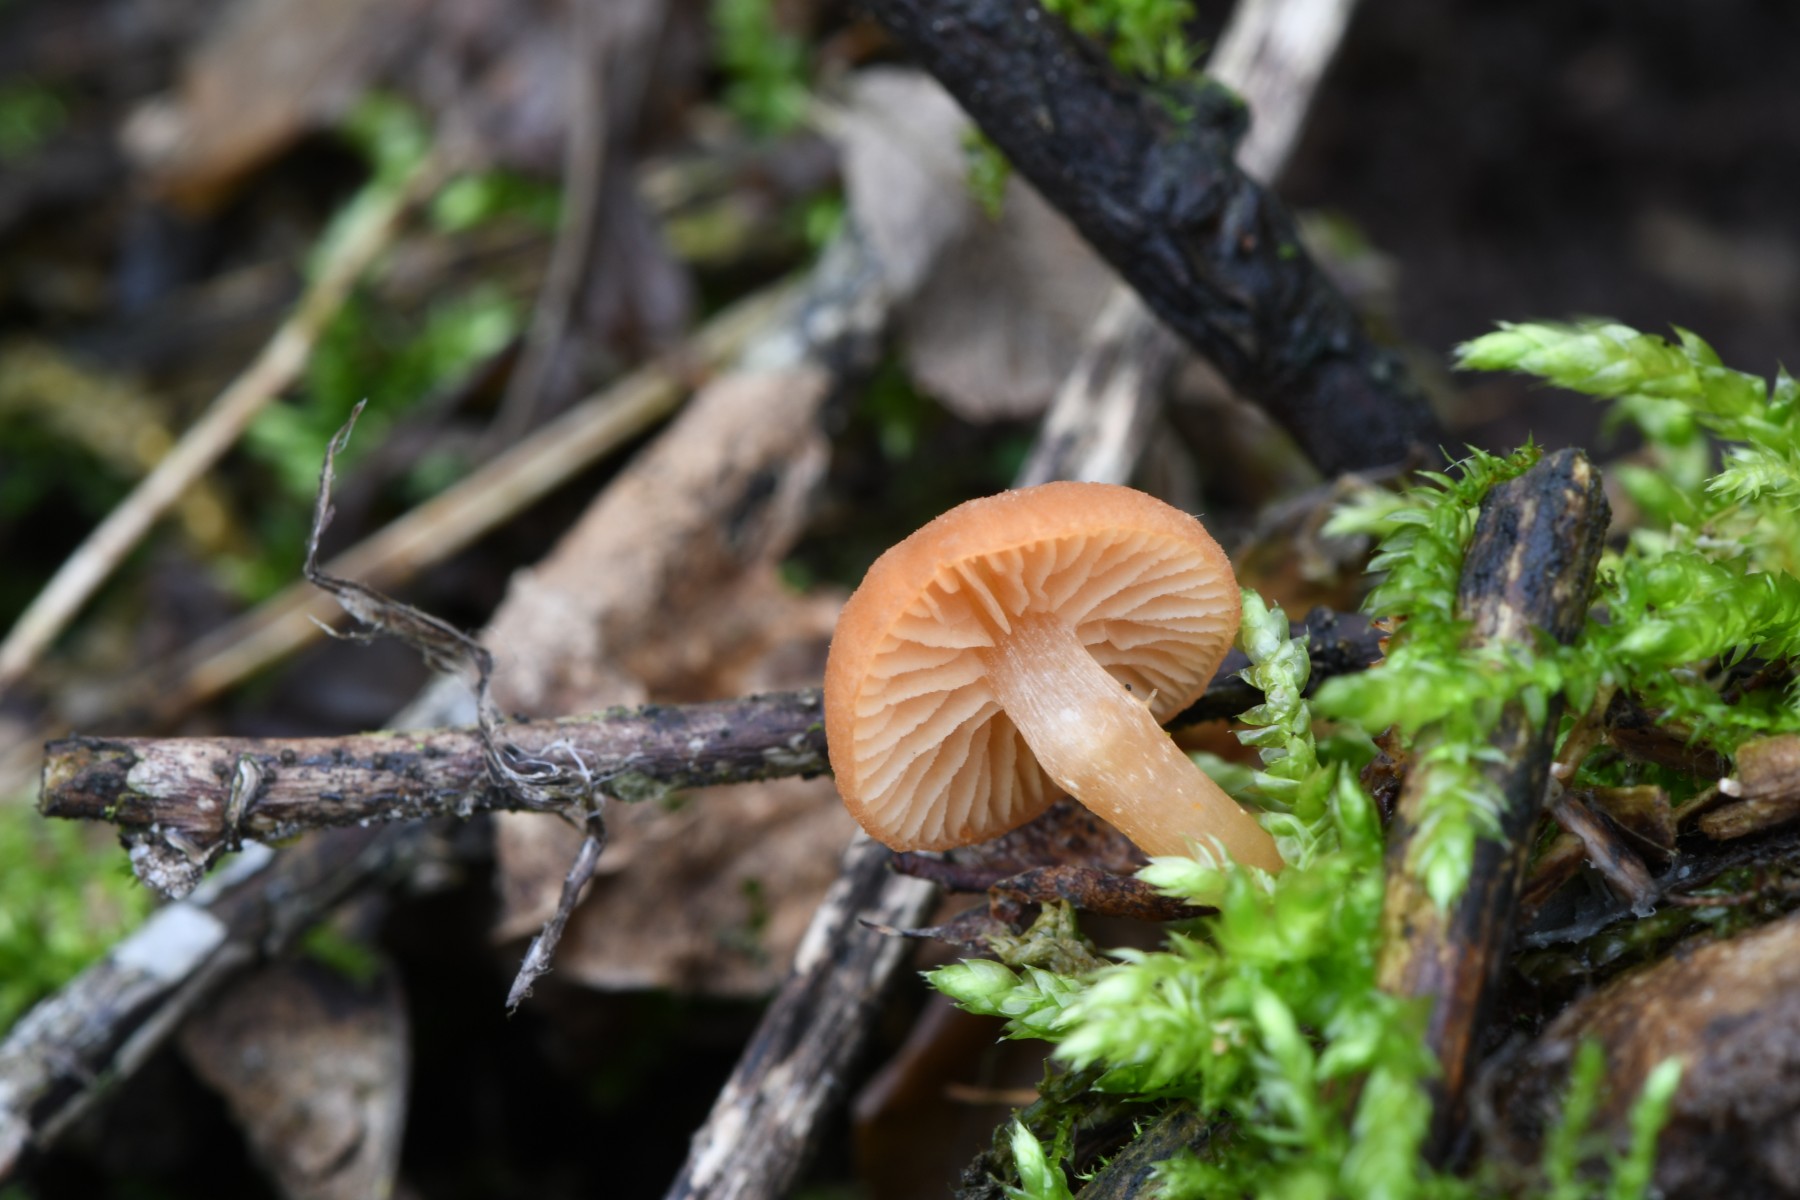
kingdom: Fungi
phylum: Basidiomycota
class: Agaricomycetes
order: Agaricales
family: Tubariaceae
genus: Tubaria
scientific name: Tubaria furfuracea
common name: kliddet fnughat
